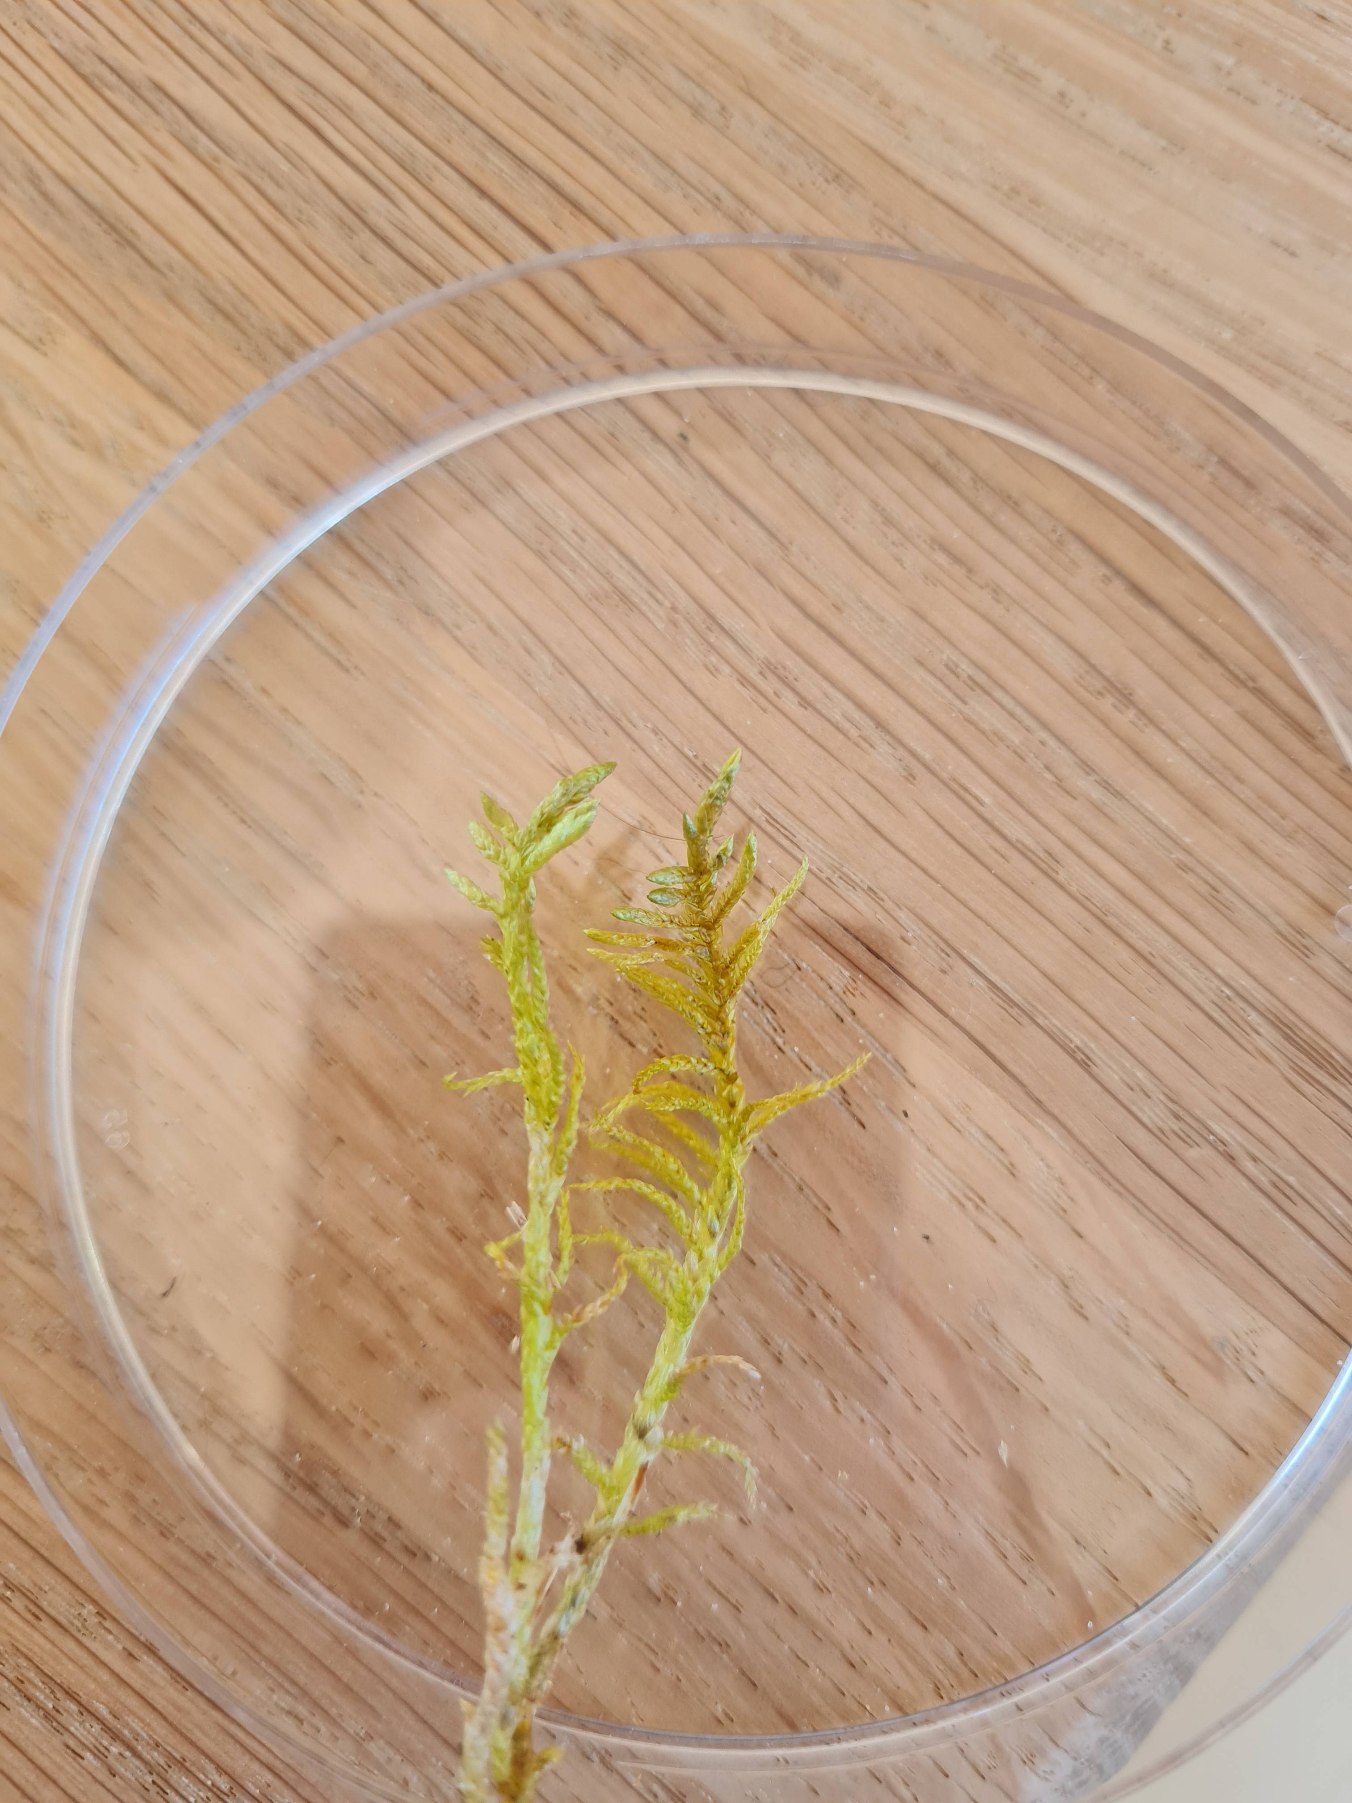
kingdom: Plantae
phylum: Bryophyta
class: Bryopsida
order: Hypnales
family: Brachytheciaceae
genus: Pseudoscleropodium
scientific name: Pseudoscleropodium purum
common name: Hulbladet fedtmos
